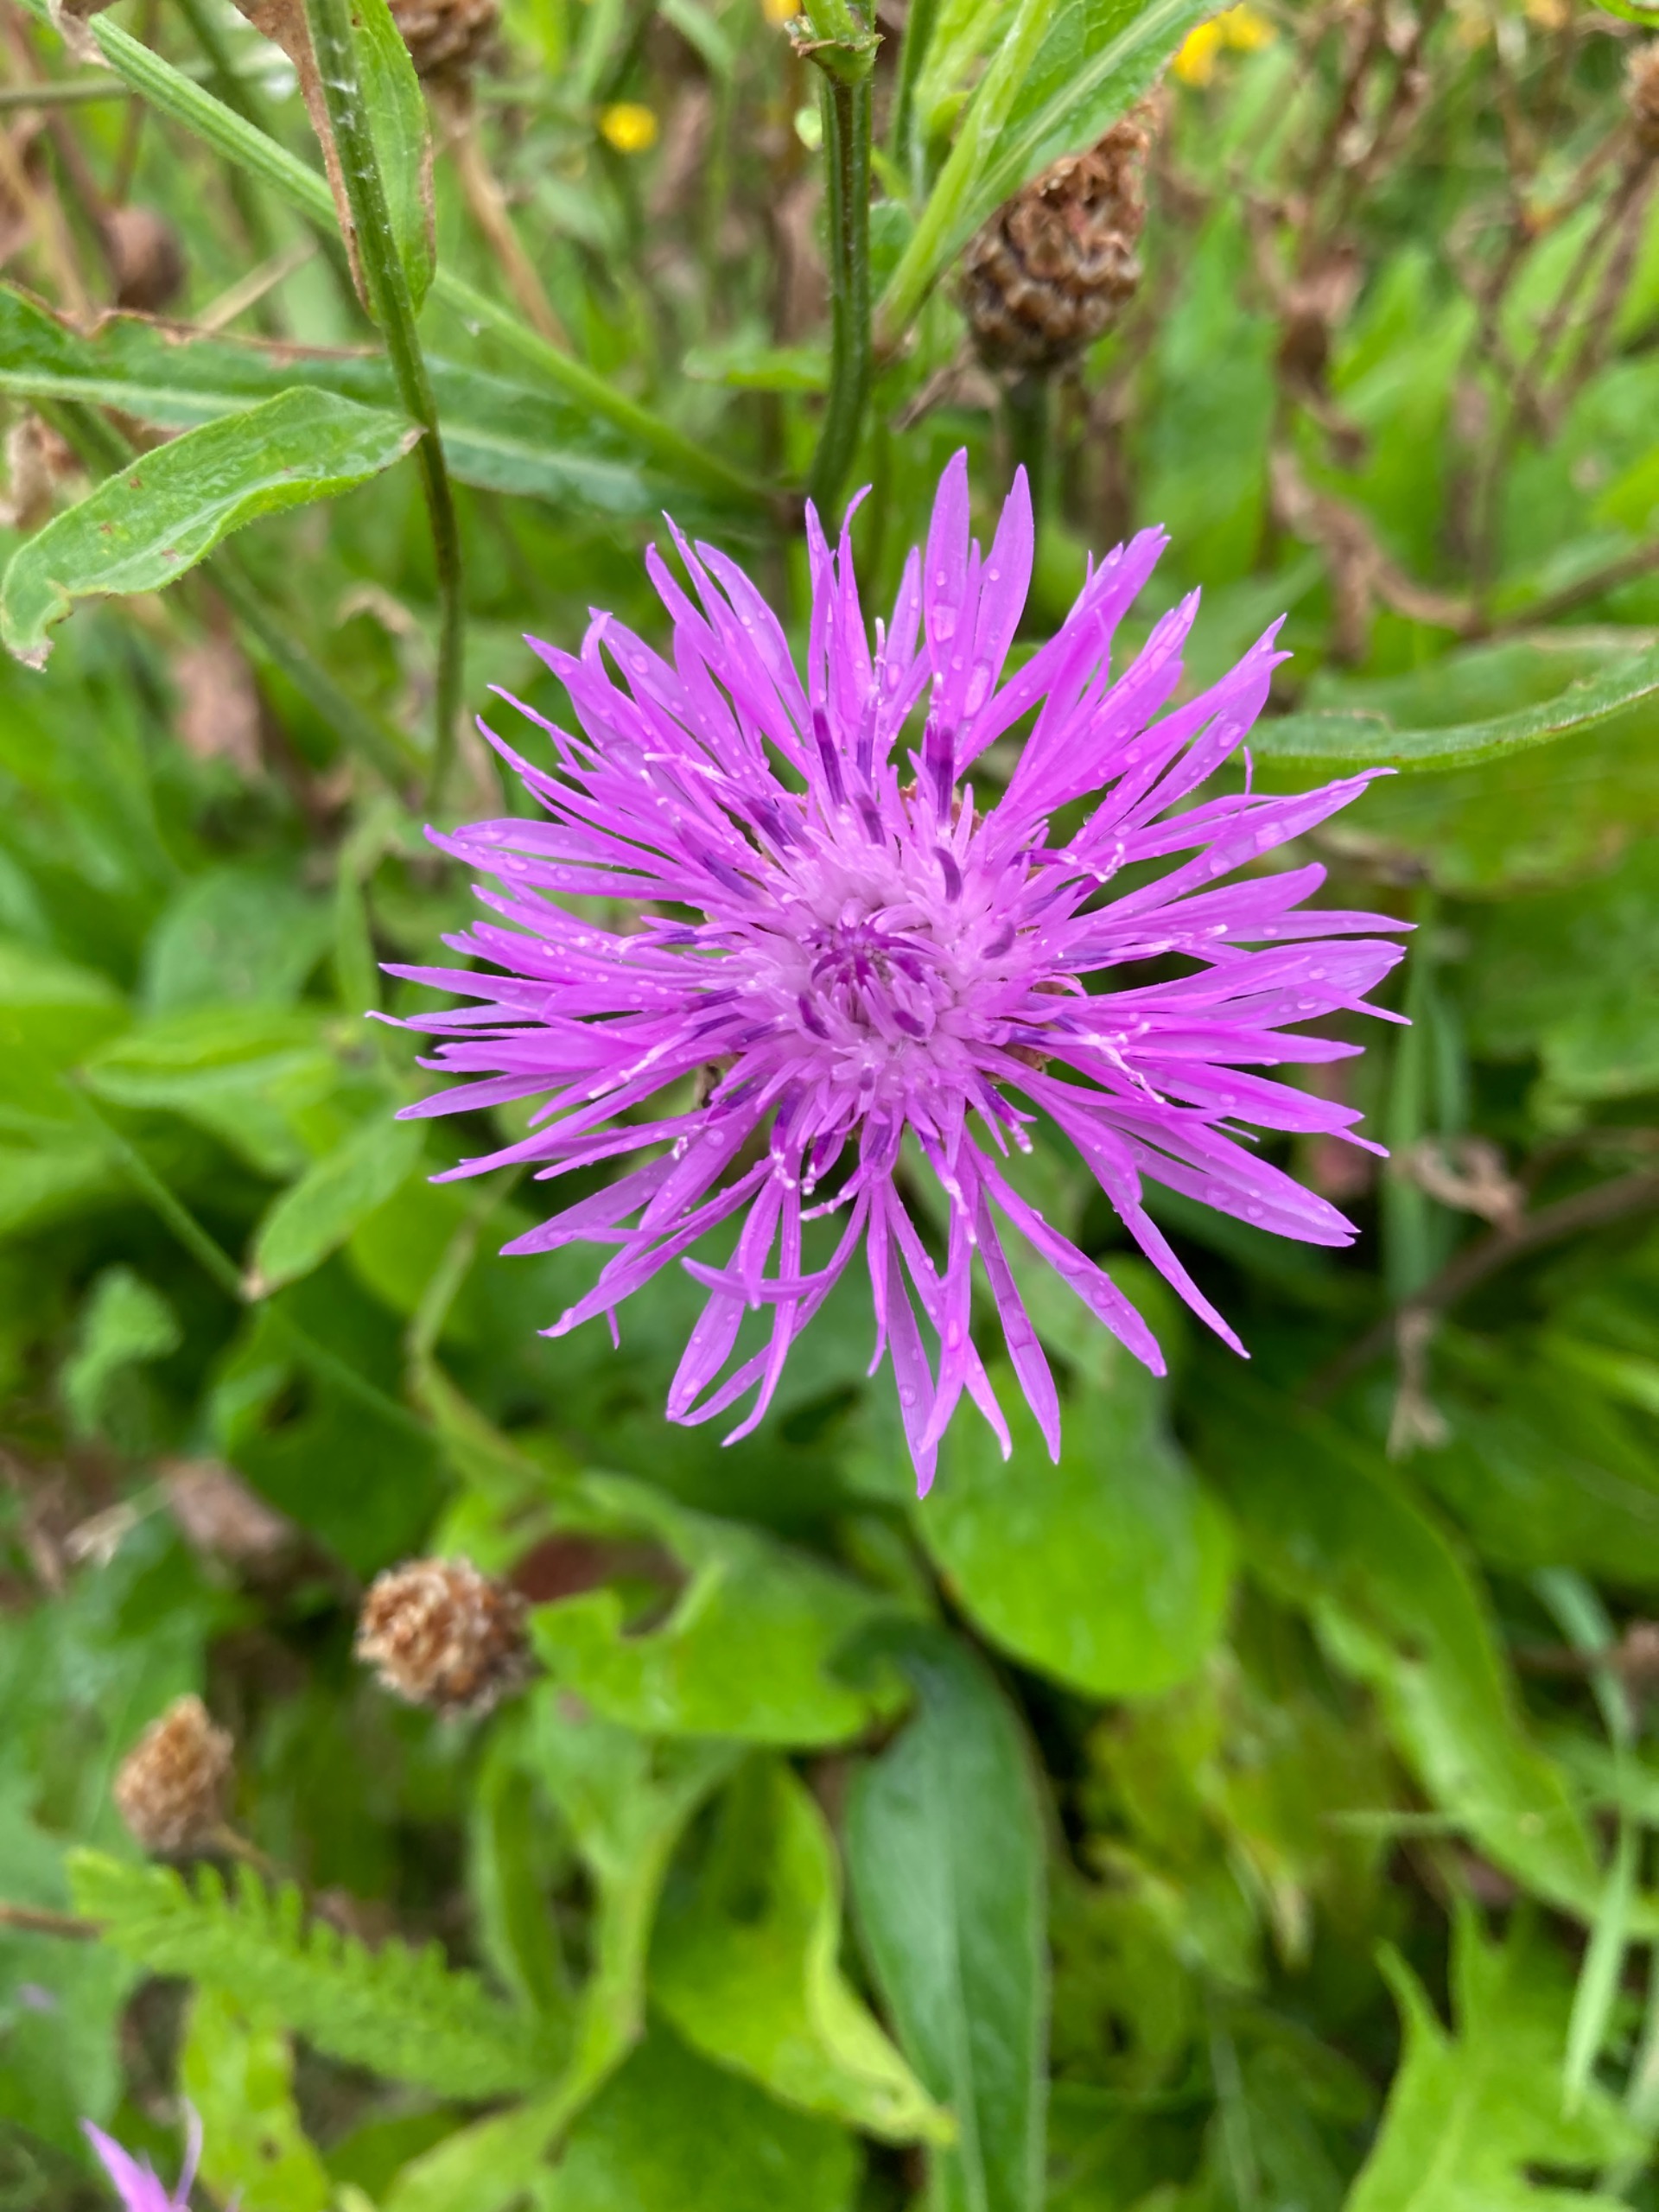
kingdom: Plantae
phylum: Tracheophyta
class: Magnoliopsida
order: Asterales
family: Asteraceae
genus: Centaurea
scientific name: Centaurea jacea
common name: Almindelig knopurt
